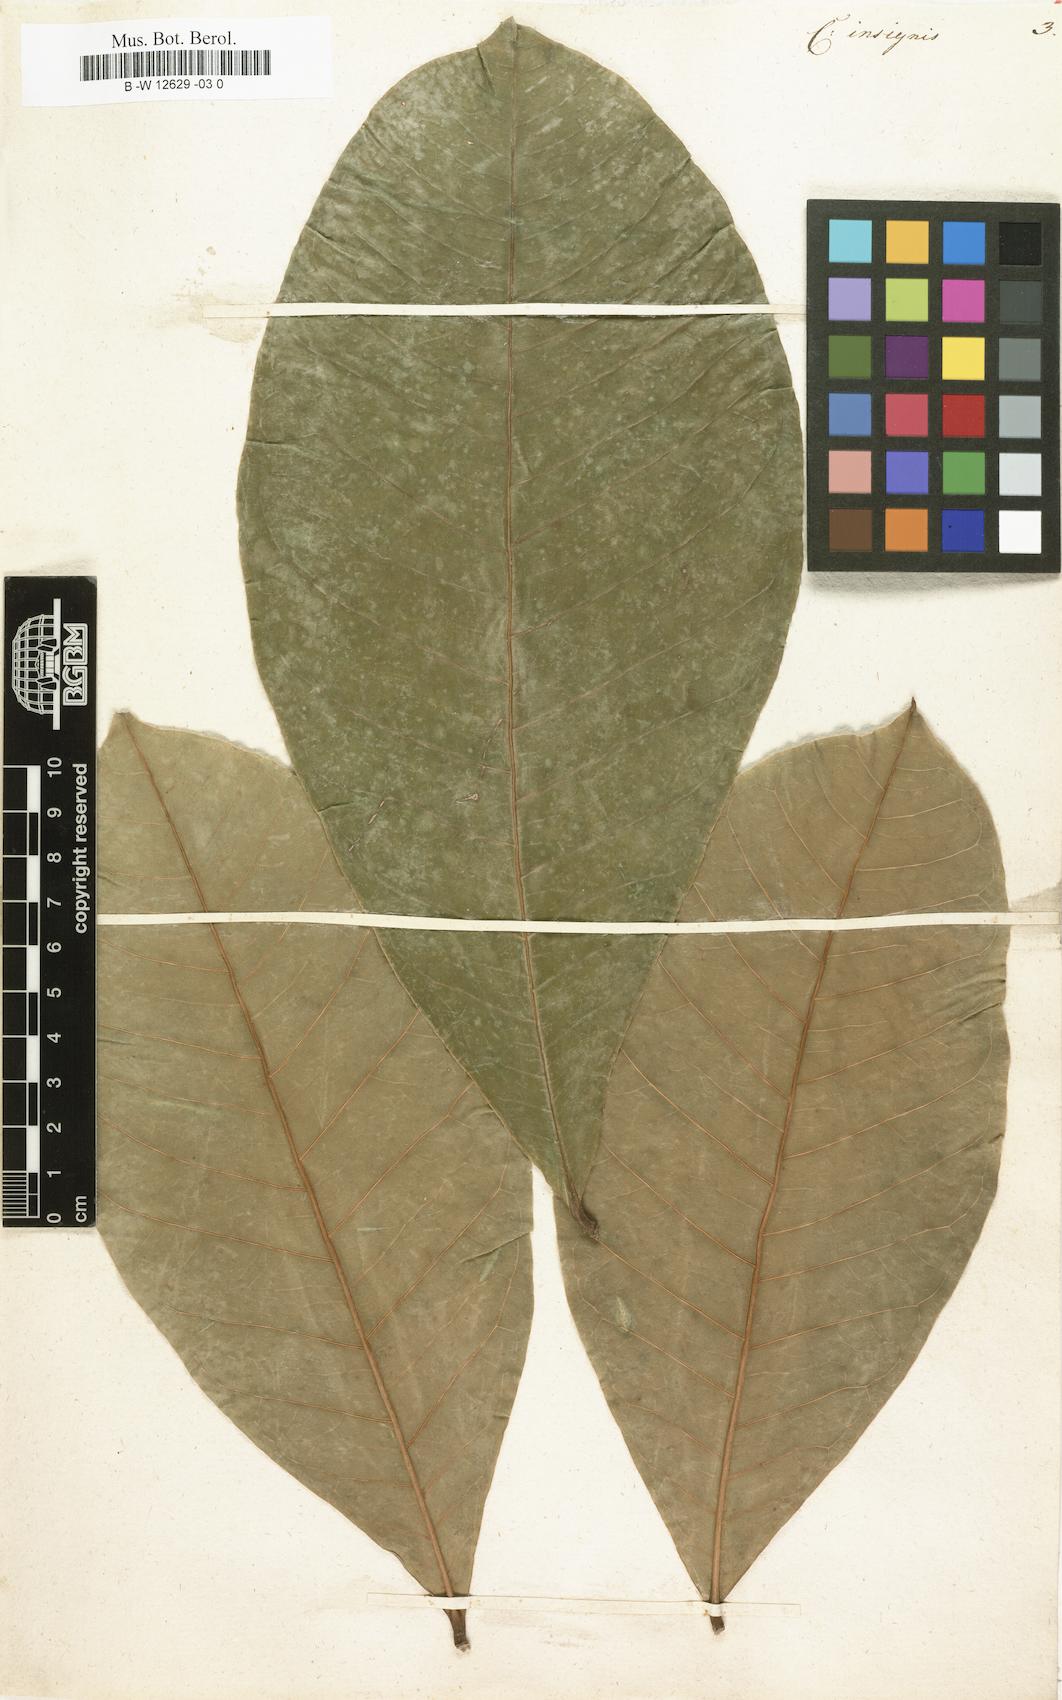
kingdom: Plantae
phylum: Tracheophyta
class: Magnoliopsida
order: Malvales
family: Malvaceae
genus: Pachira
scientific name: Pachira insignis
